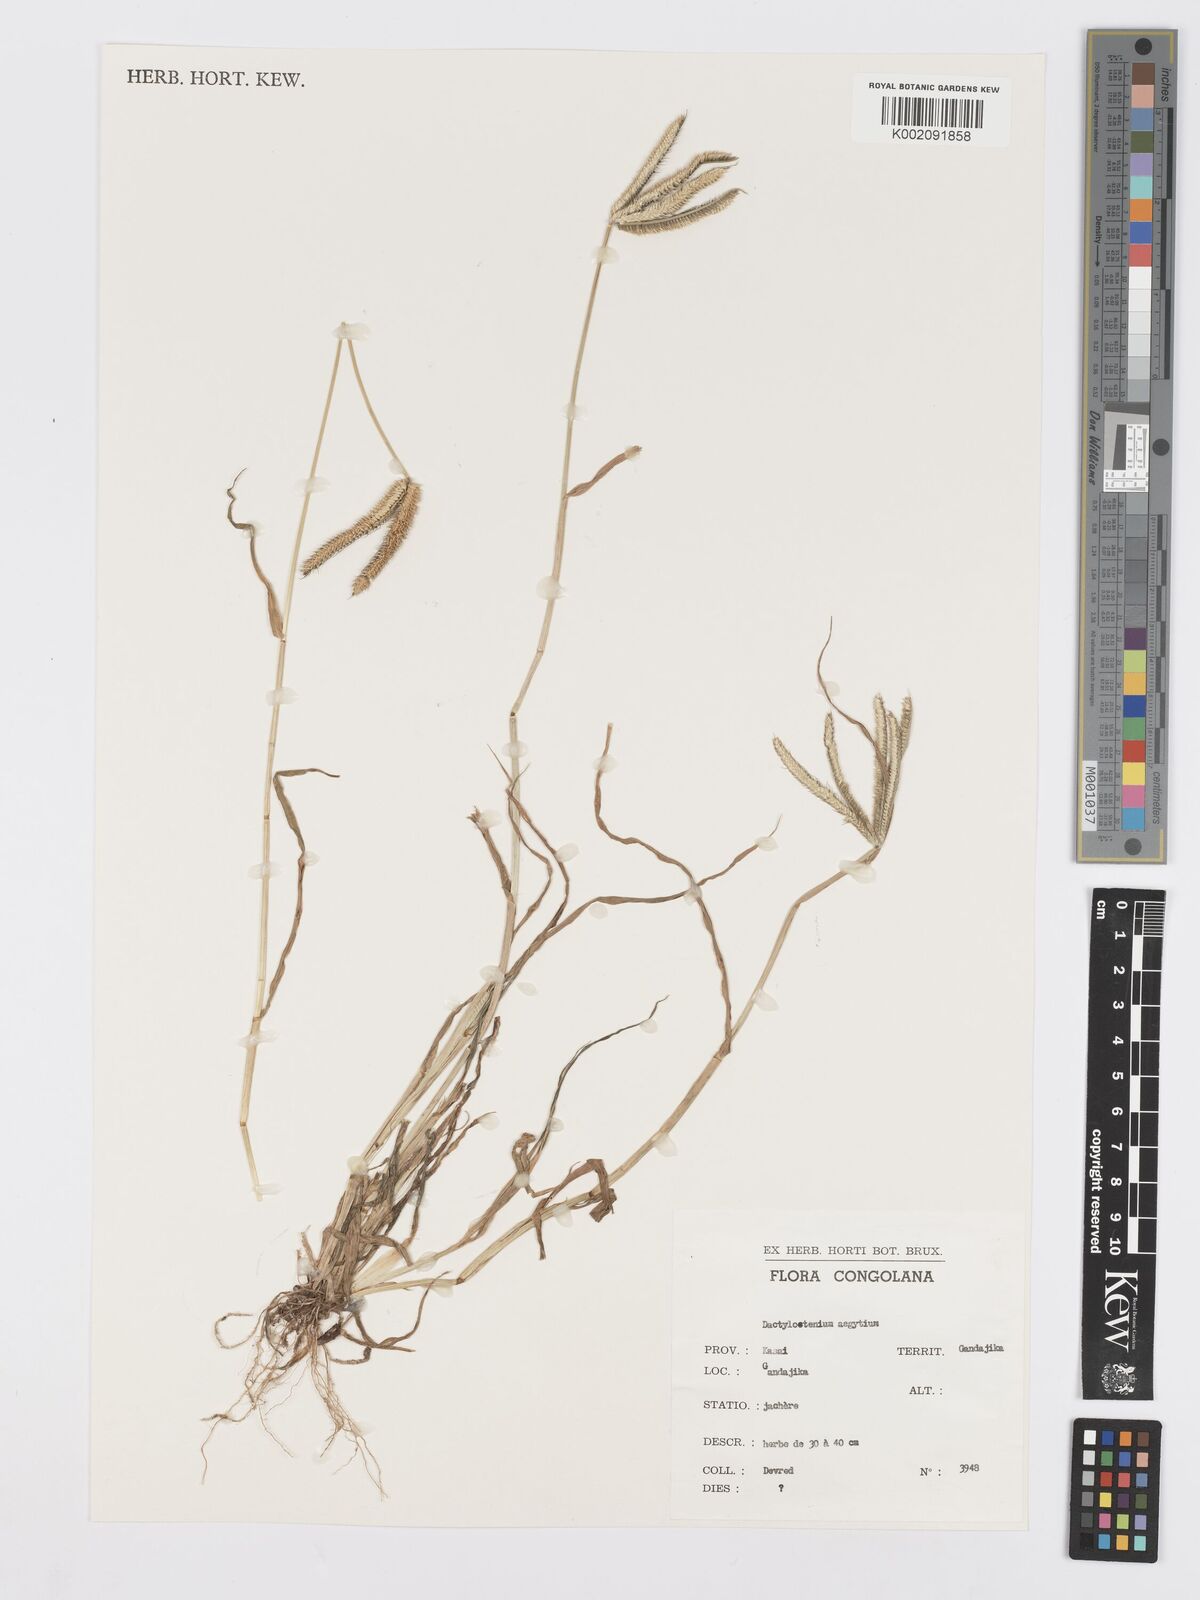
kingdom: Plantae
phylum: Tracheophyta
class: Liliopsida
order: Poales
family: Poaceae
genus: Dactyloctenium
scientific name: Dactyloctenium aegyptium
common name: Egyptian grass
